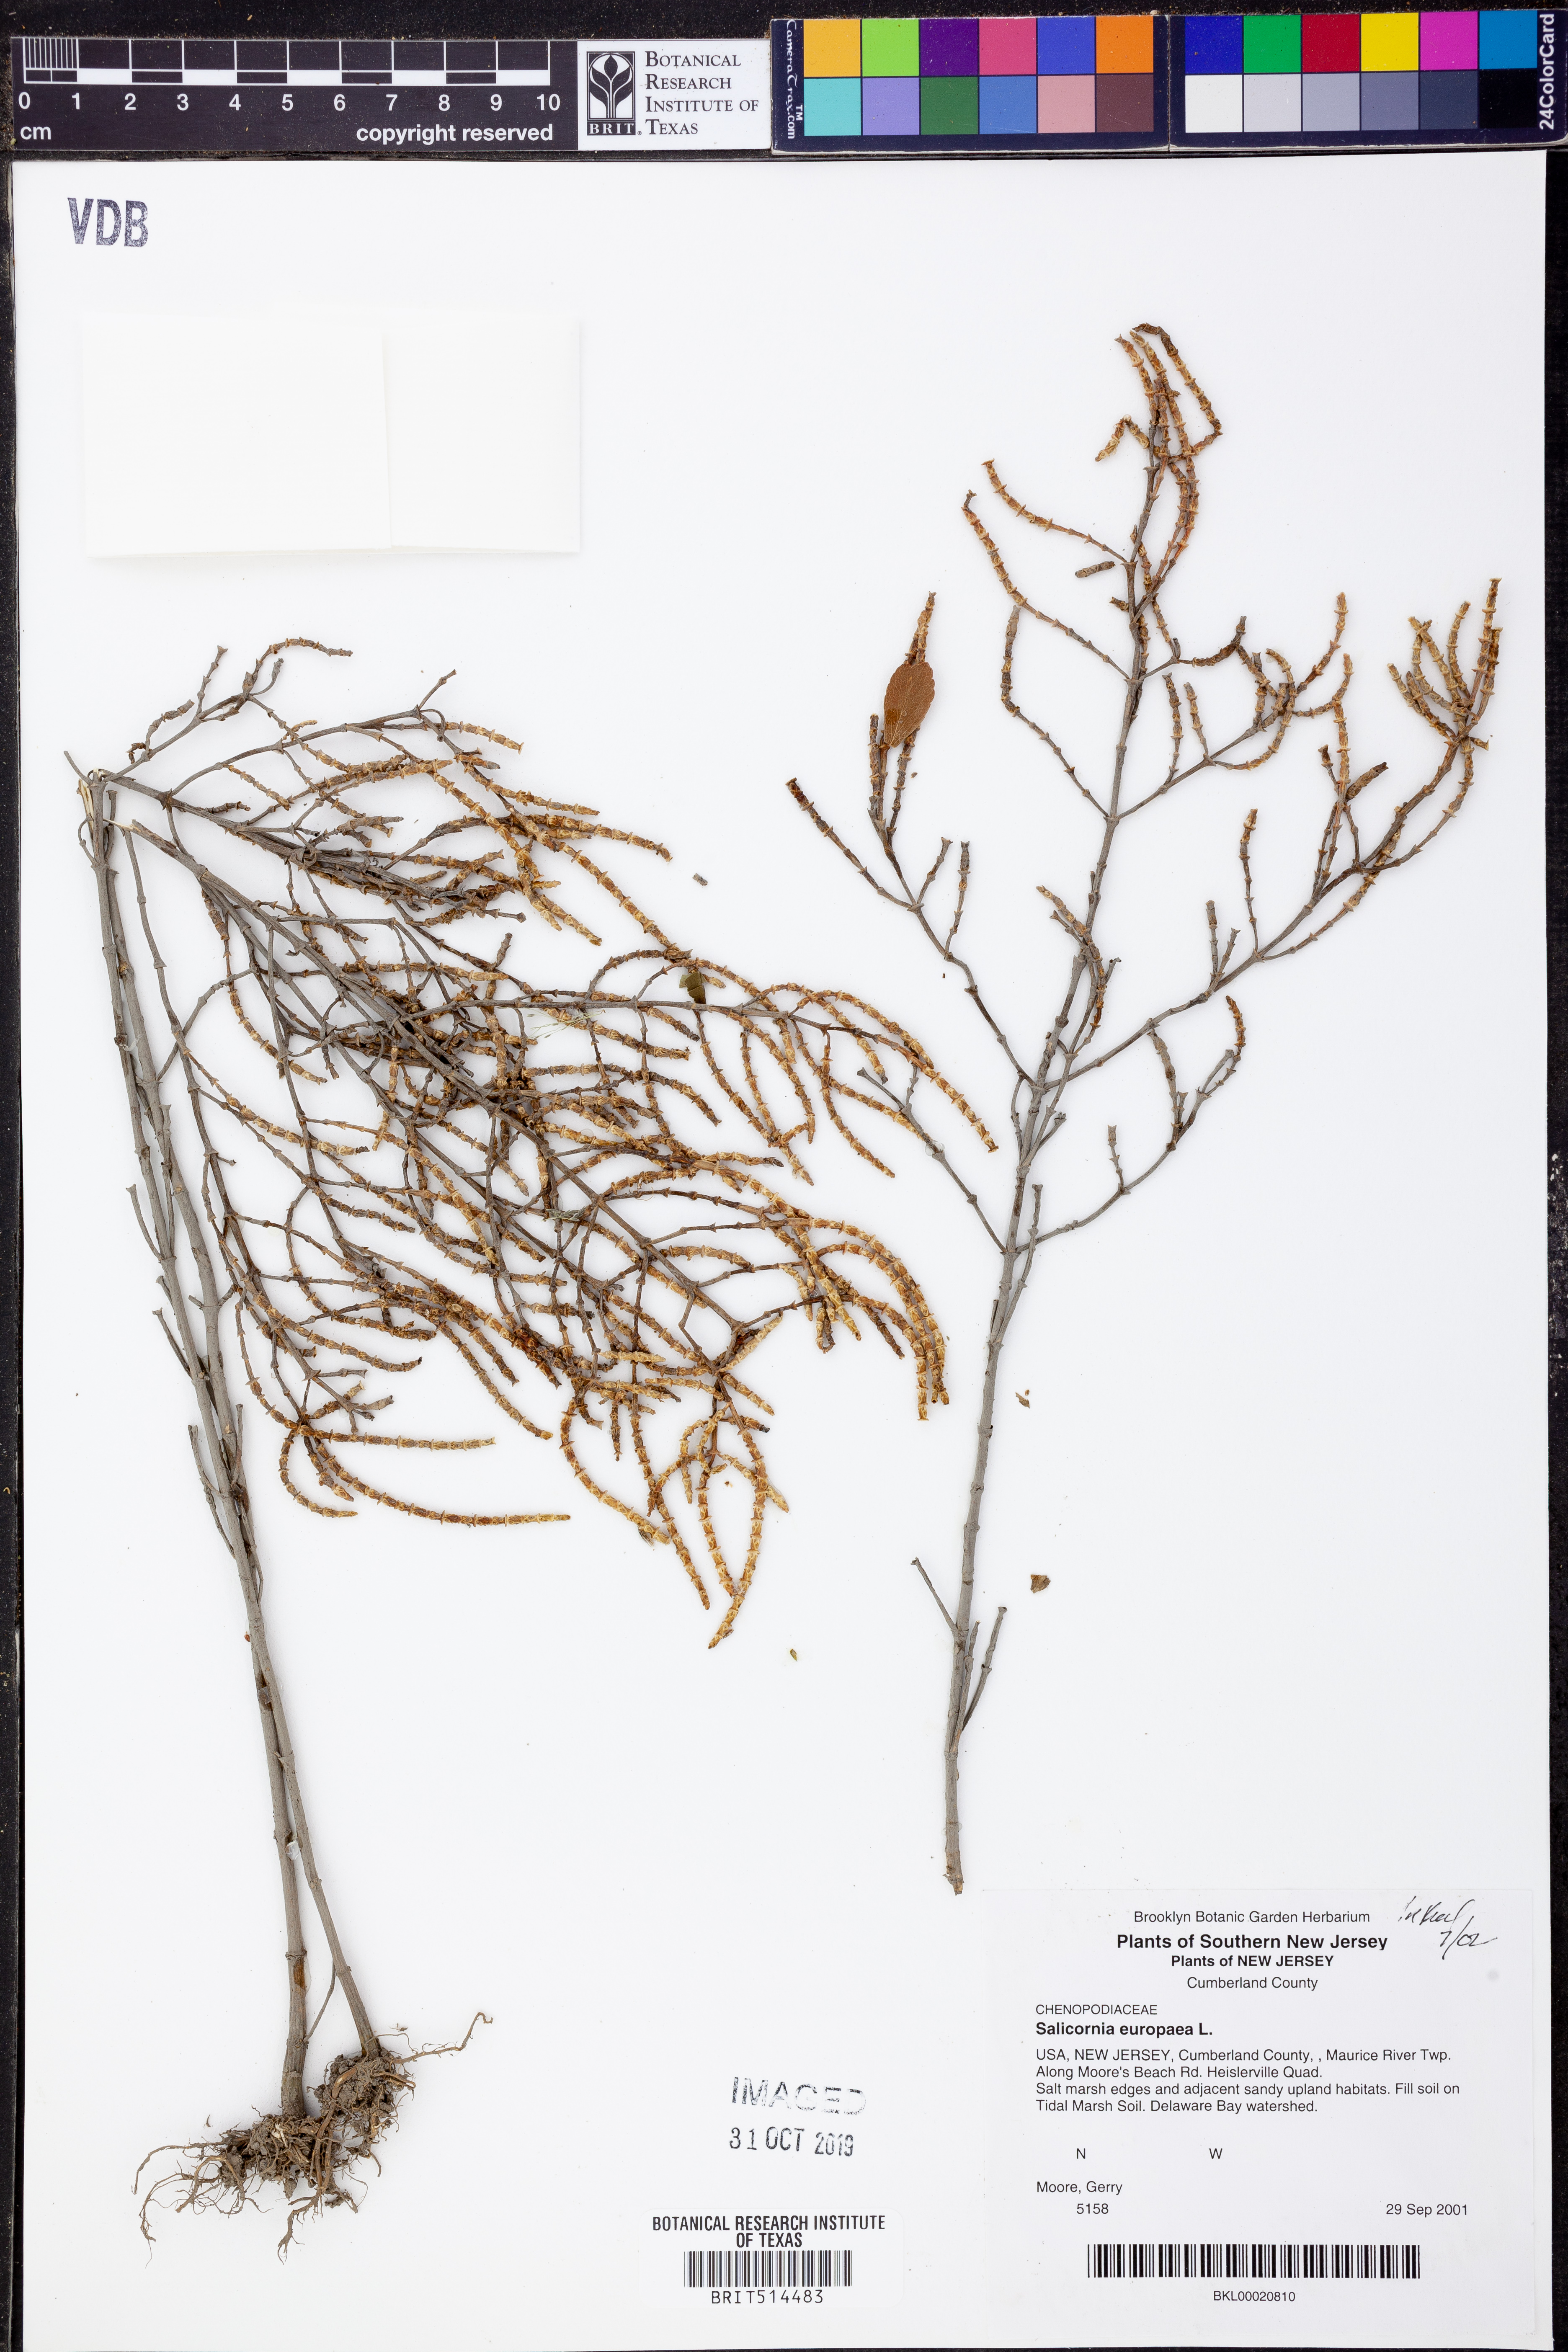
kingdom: Plantae
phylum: Tracheophyta
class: Magnoliopsida
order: Caryophyllales
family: Amaranthaceae
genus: Salicornia
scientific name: Salicornia europaea
